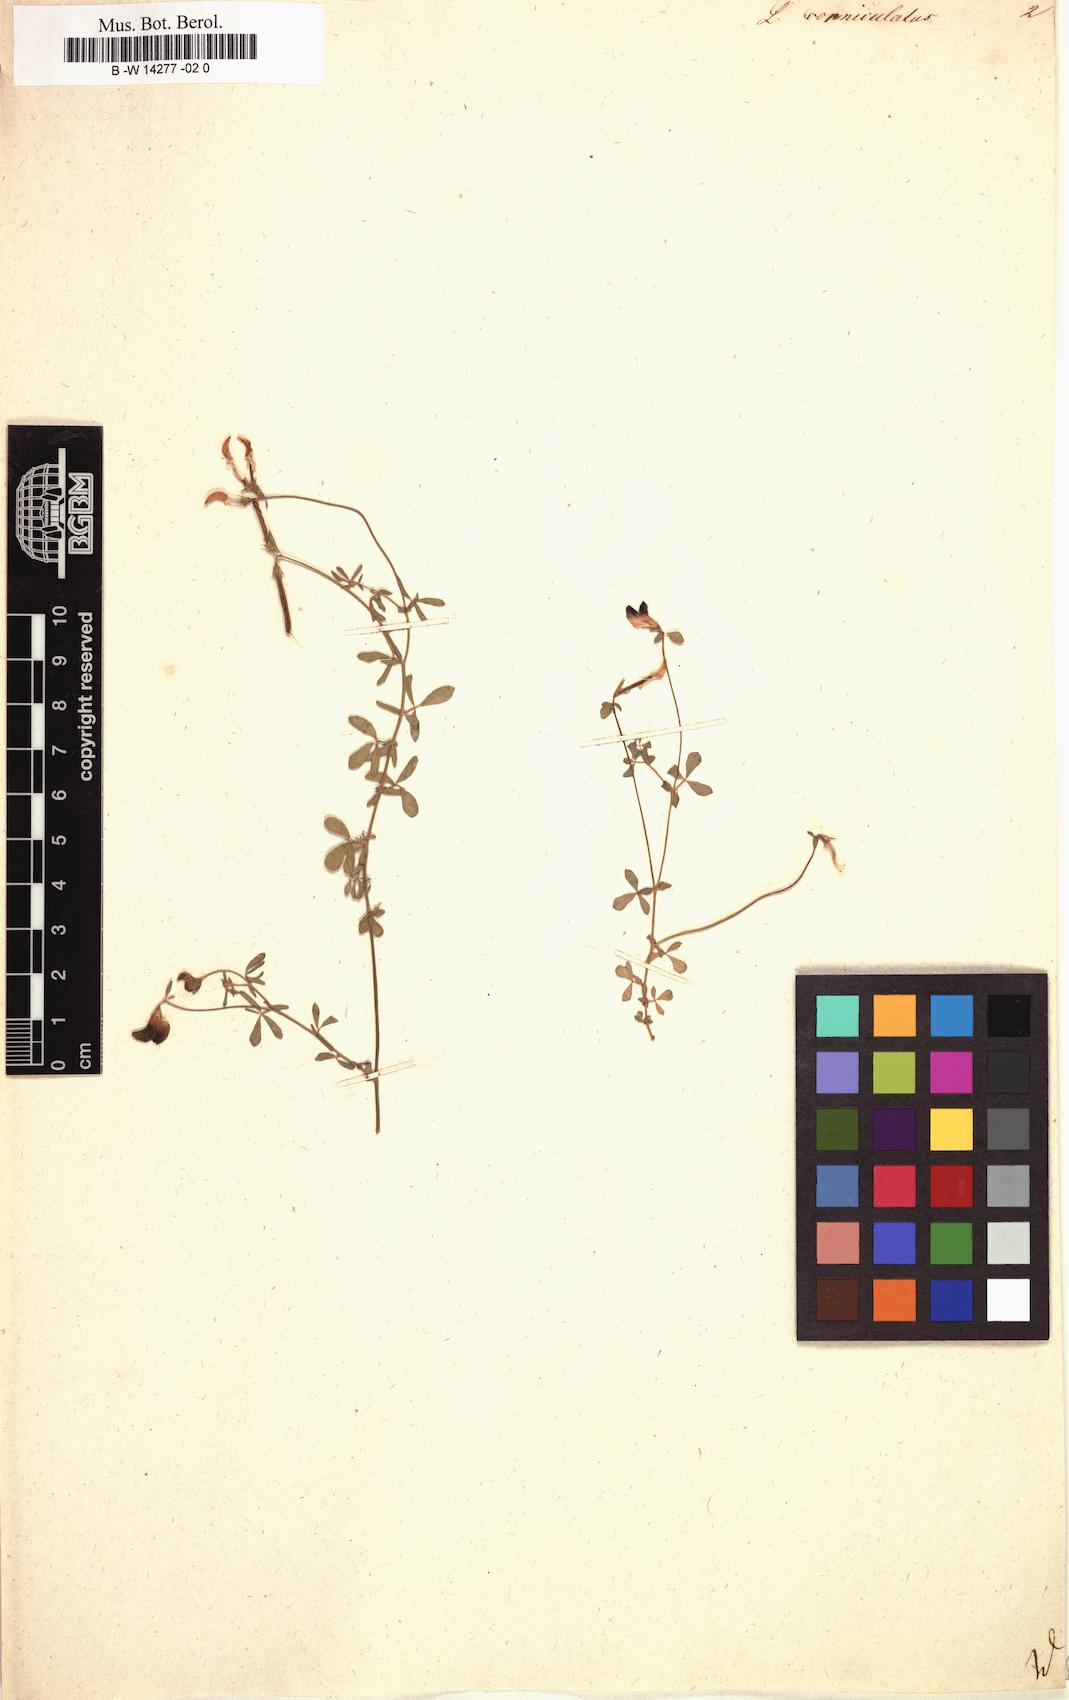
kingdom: Plantae
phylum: Tracheophyta
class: Magnoliopsida
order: Fabales
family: Fabaceae
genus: Lotus
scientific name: Lotus corniculatus
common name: Common bird's-foot-trefoil
